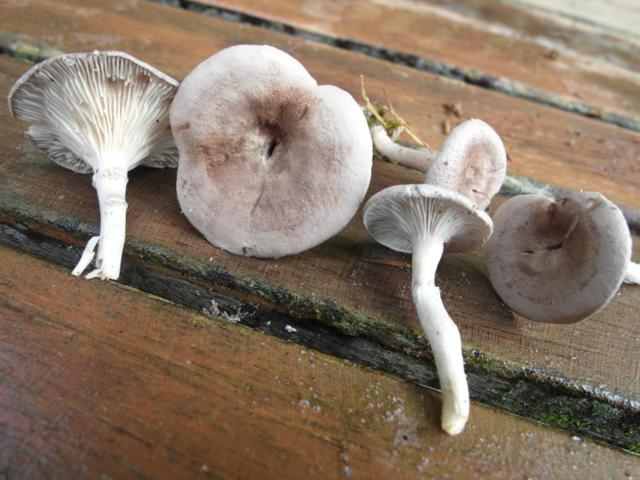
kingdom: Fungi
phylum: Basidiomycota
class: Agaricomycetes
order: Agaricales
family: Hygrophoraceae
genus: Cantharellula
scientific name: Cantharellula umbonata
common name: rødmende gaffelblad
